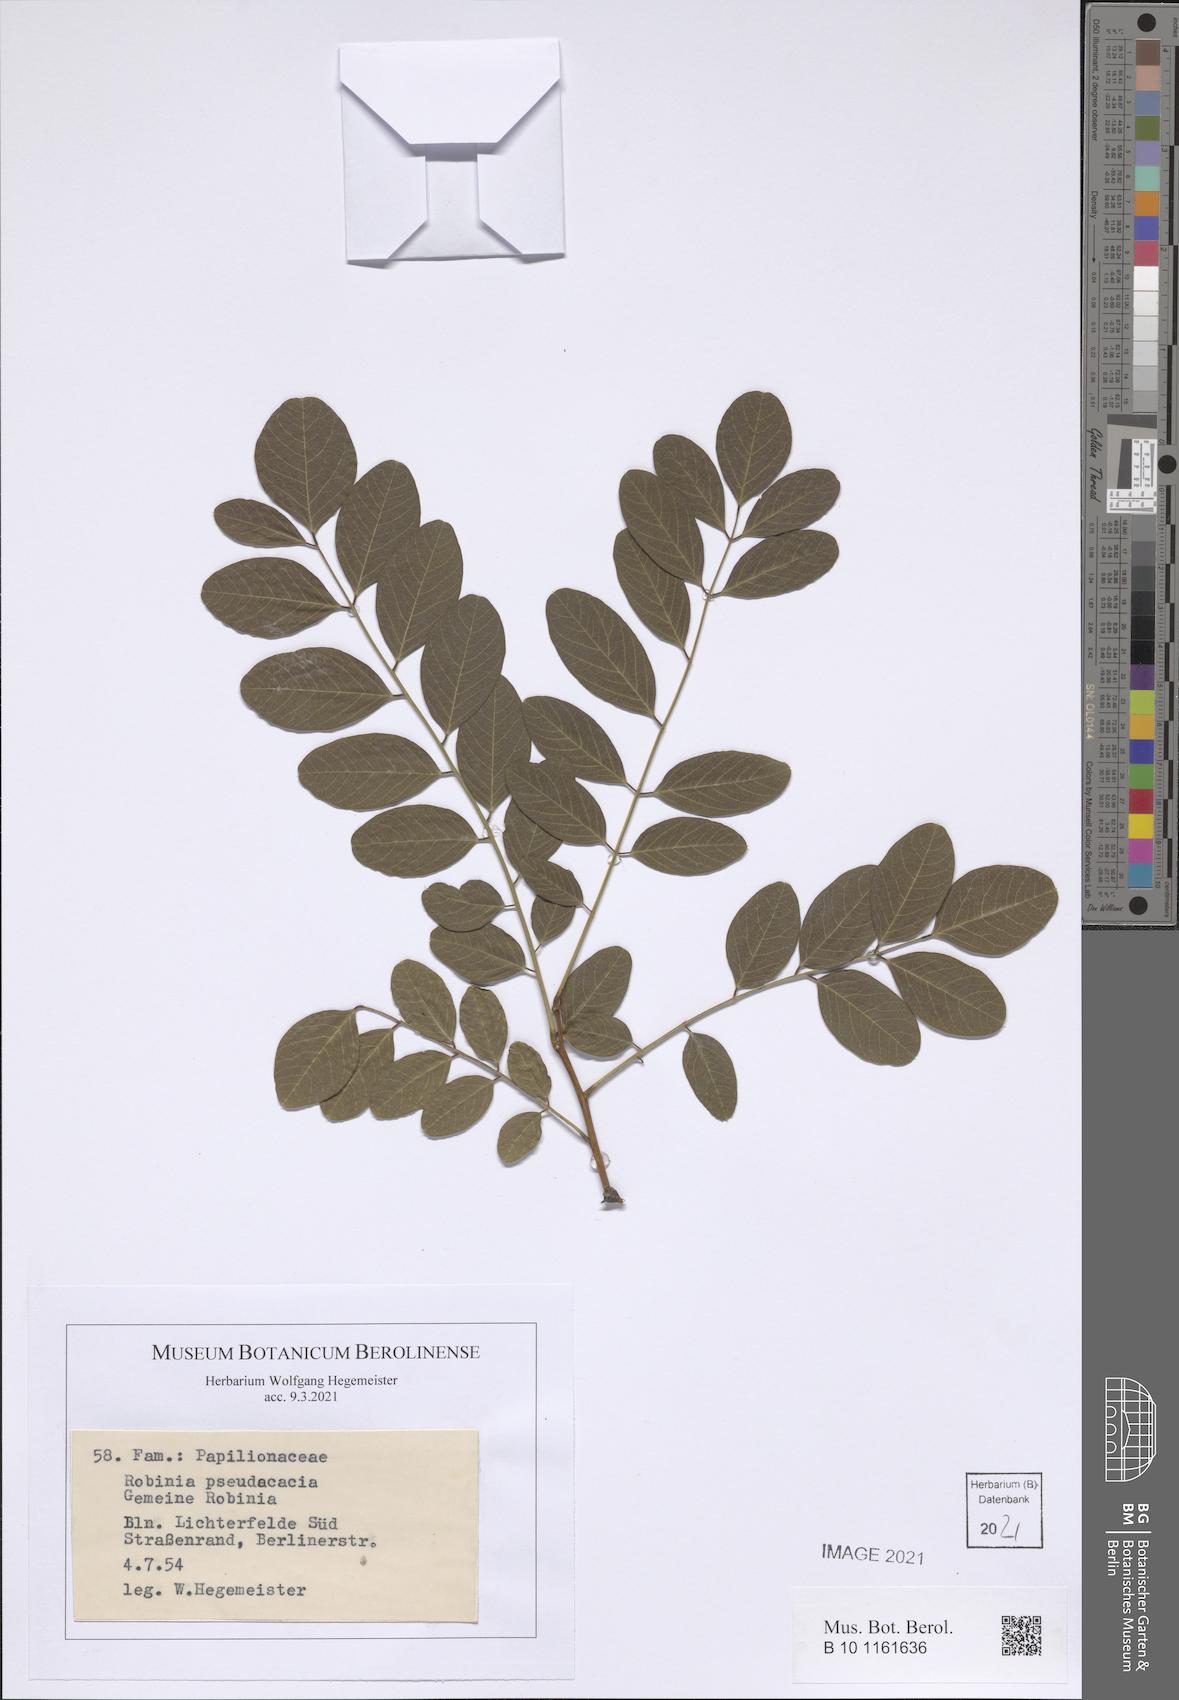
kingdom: Plantae
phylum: Tracheophyta
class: Magnoliopsida
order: Fabales
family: Fabaceae
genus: Robinia
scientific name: Robinia pseudoacacia
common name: Black locust
